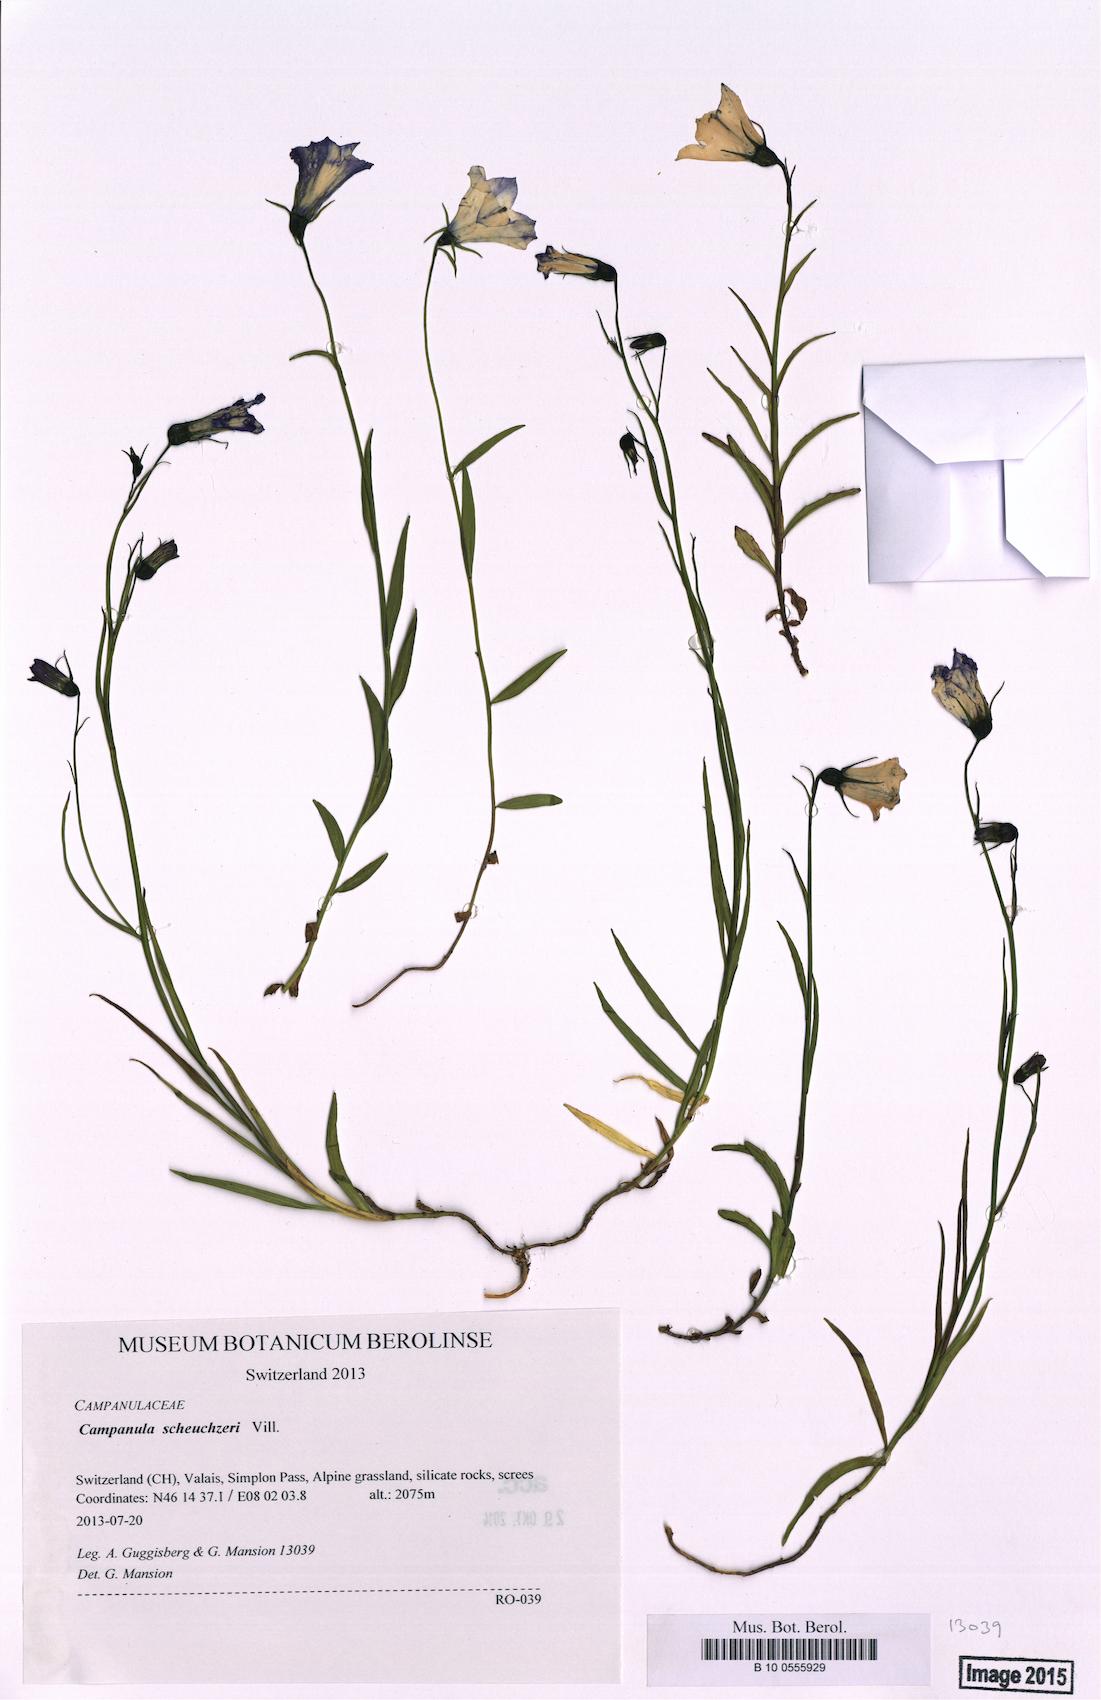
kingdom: Plantae
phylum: Tracheophyta
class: Magnoliopsida
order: Asterales
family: Campanulaceae
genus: Campanula
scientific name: Campanula scheuchzeri
